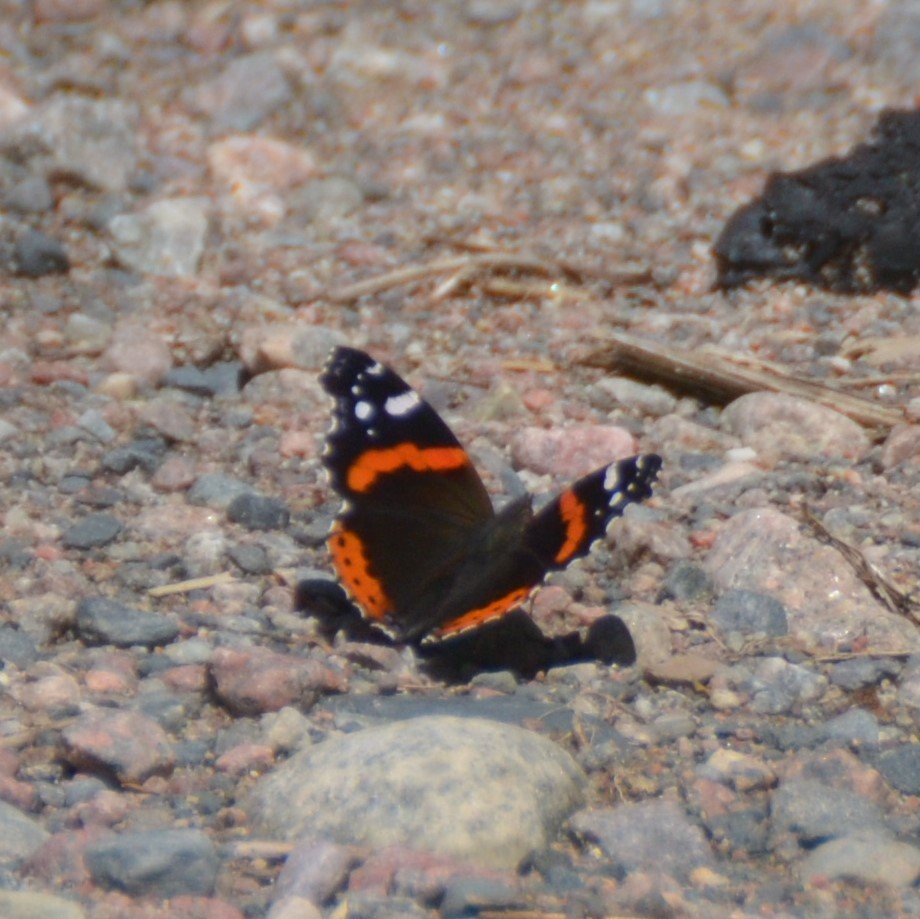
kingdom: Animalia
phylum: Arthropoda
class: Insecta
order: Lepidoptera
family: Nymphalidae
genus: Vanessa
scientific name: Vanessa atalanta
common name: Red Admiral
